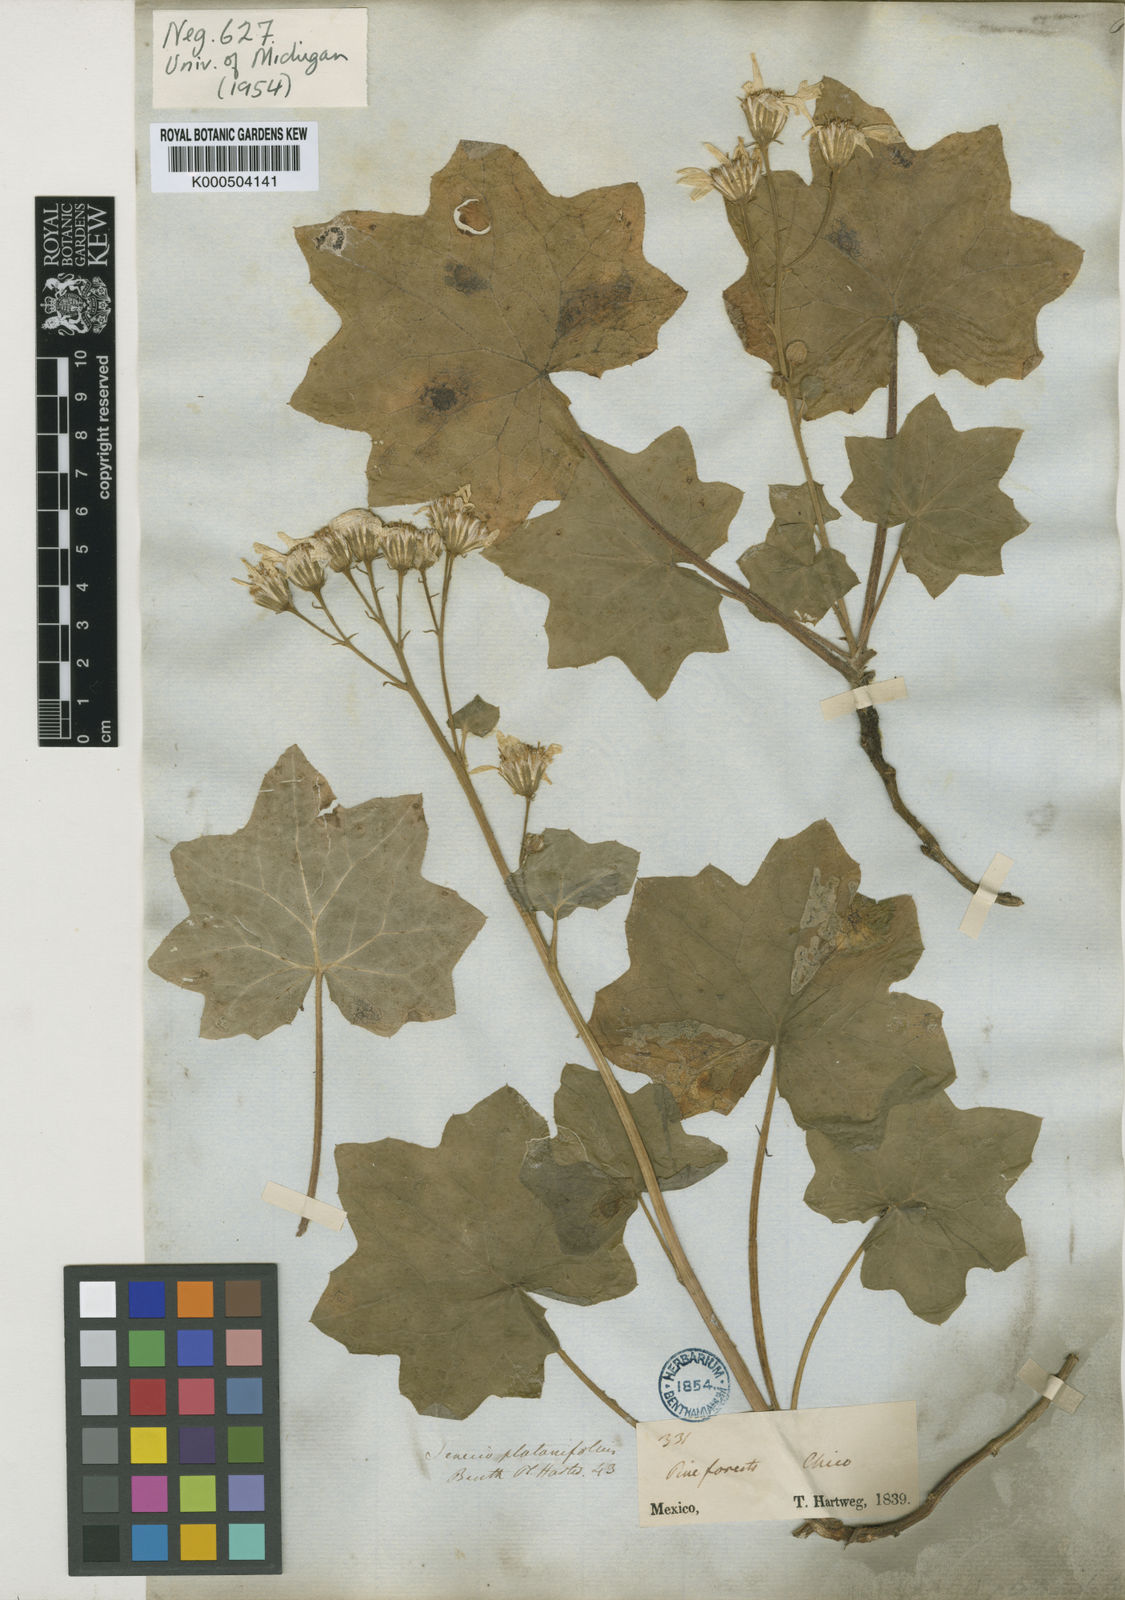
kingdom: Plantae
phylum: Tracheophyta
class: Magnoliopsida
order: Asterales
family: Asteraceae
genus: Roldana
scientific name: Roldana
